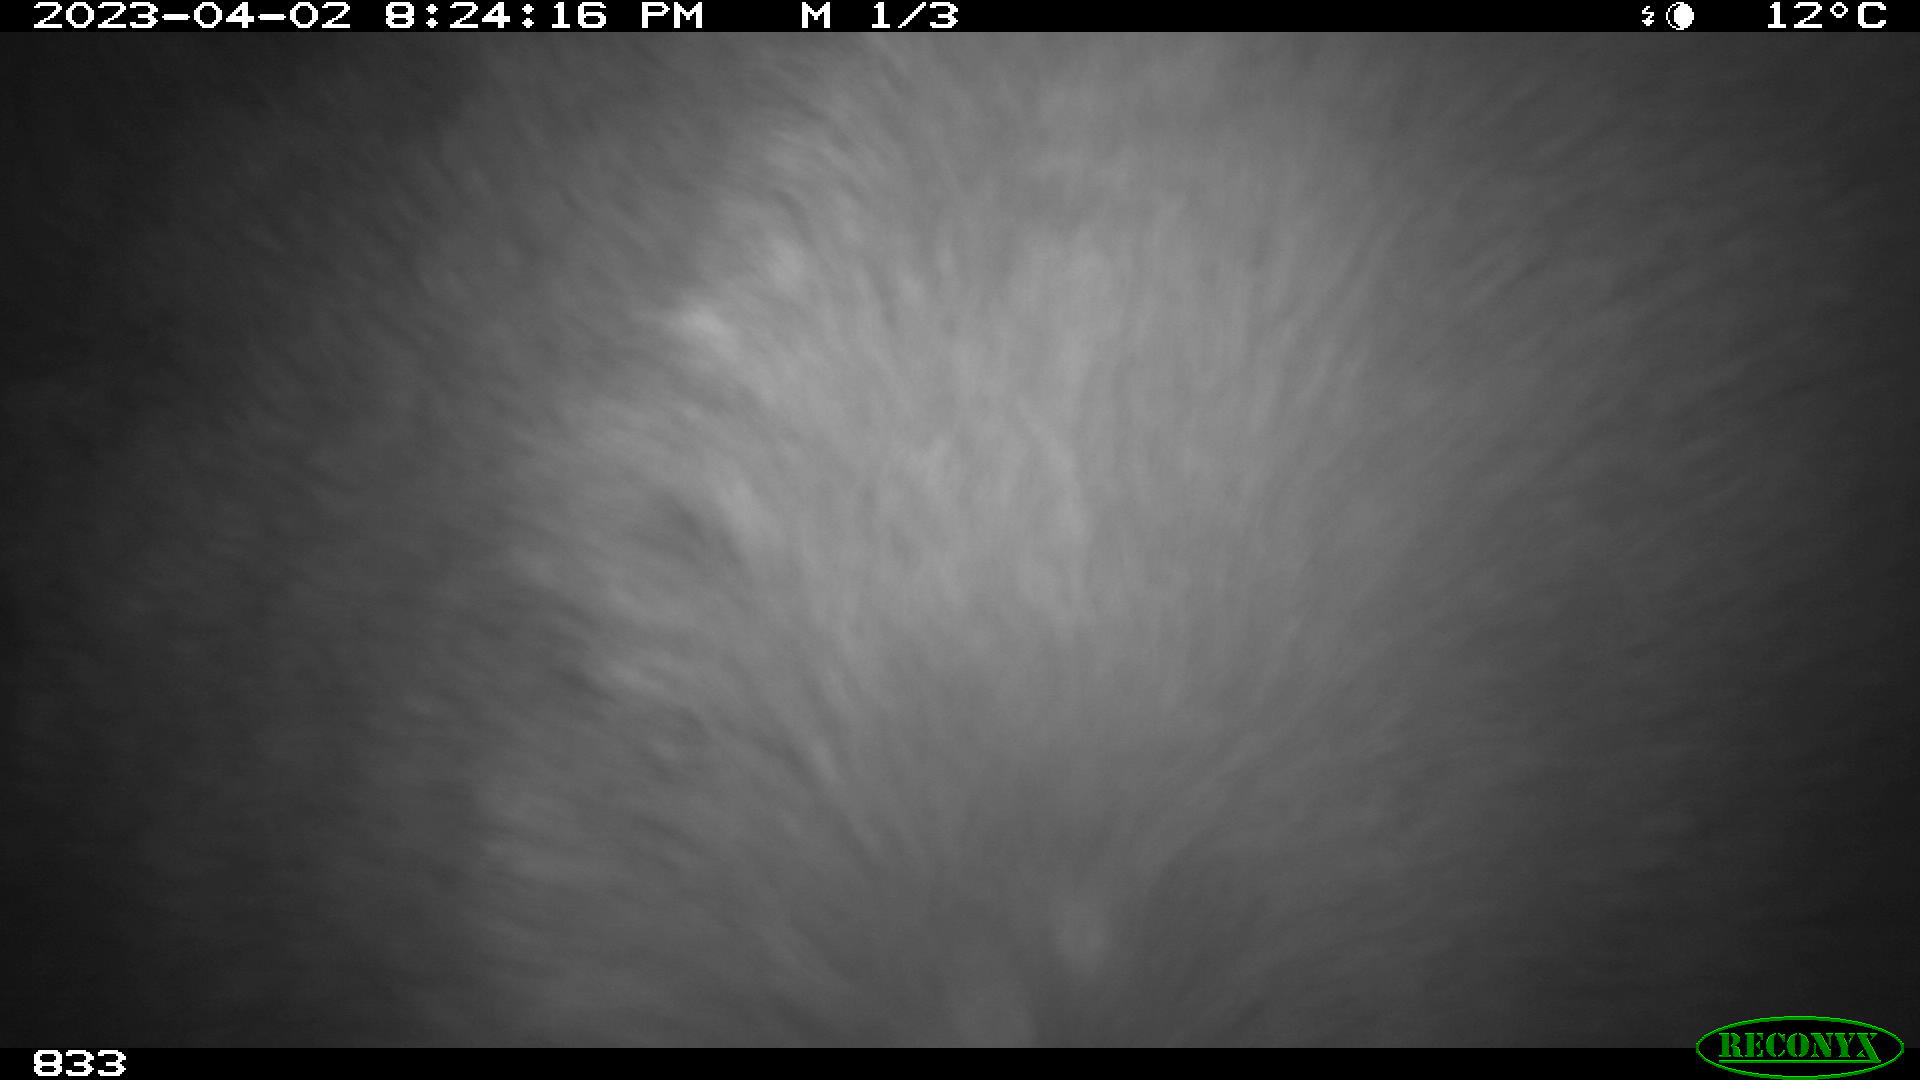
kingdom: Animalia
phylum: Chordata
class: Mammalia
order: Perissodactyla
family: Equidae
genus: Equus
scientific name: Equus caballus
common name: Horse
